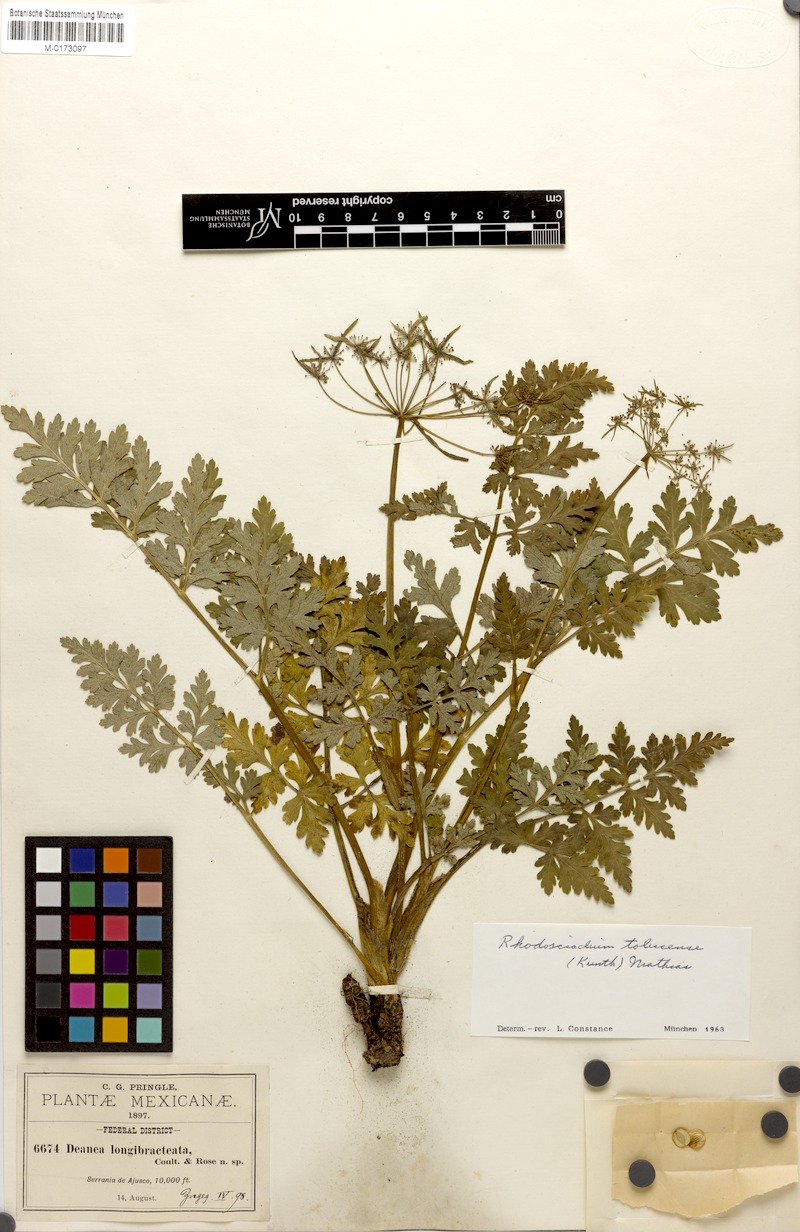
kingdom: Plantae
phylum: Tracheophyta
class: Magnoliopsida
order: Apiales
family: Apiaceae
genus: Rhodosciadium
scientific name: Rhodosciadium tolucense
